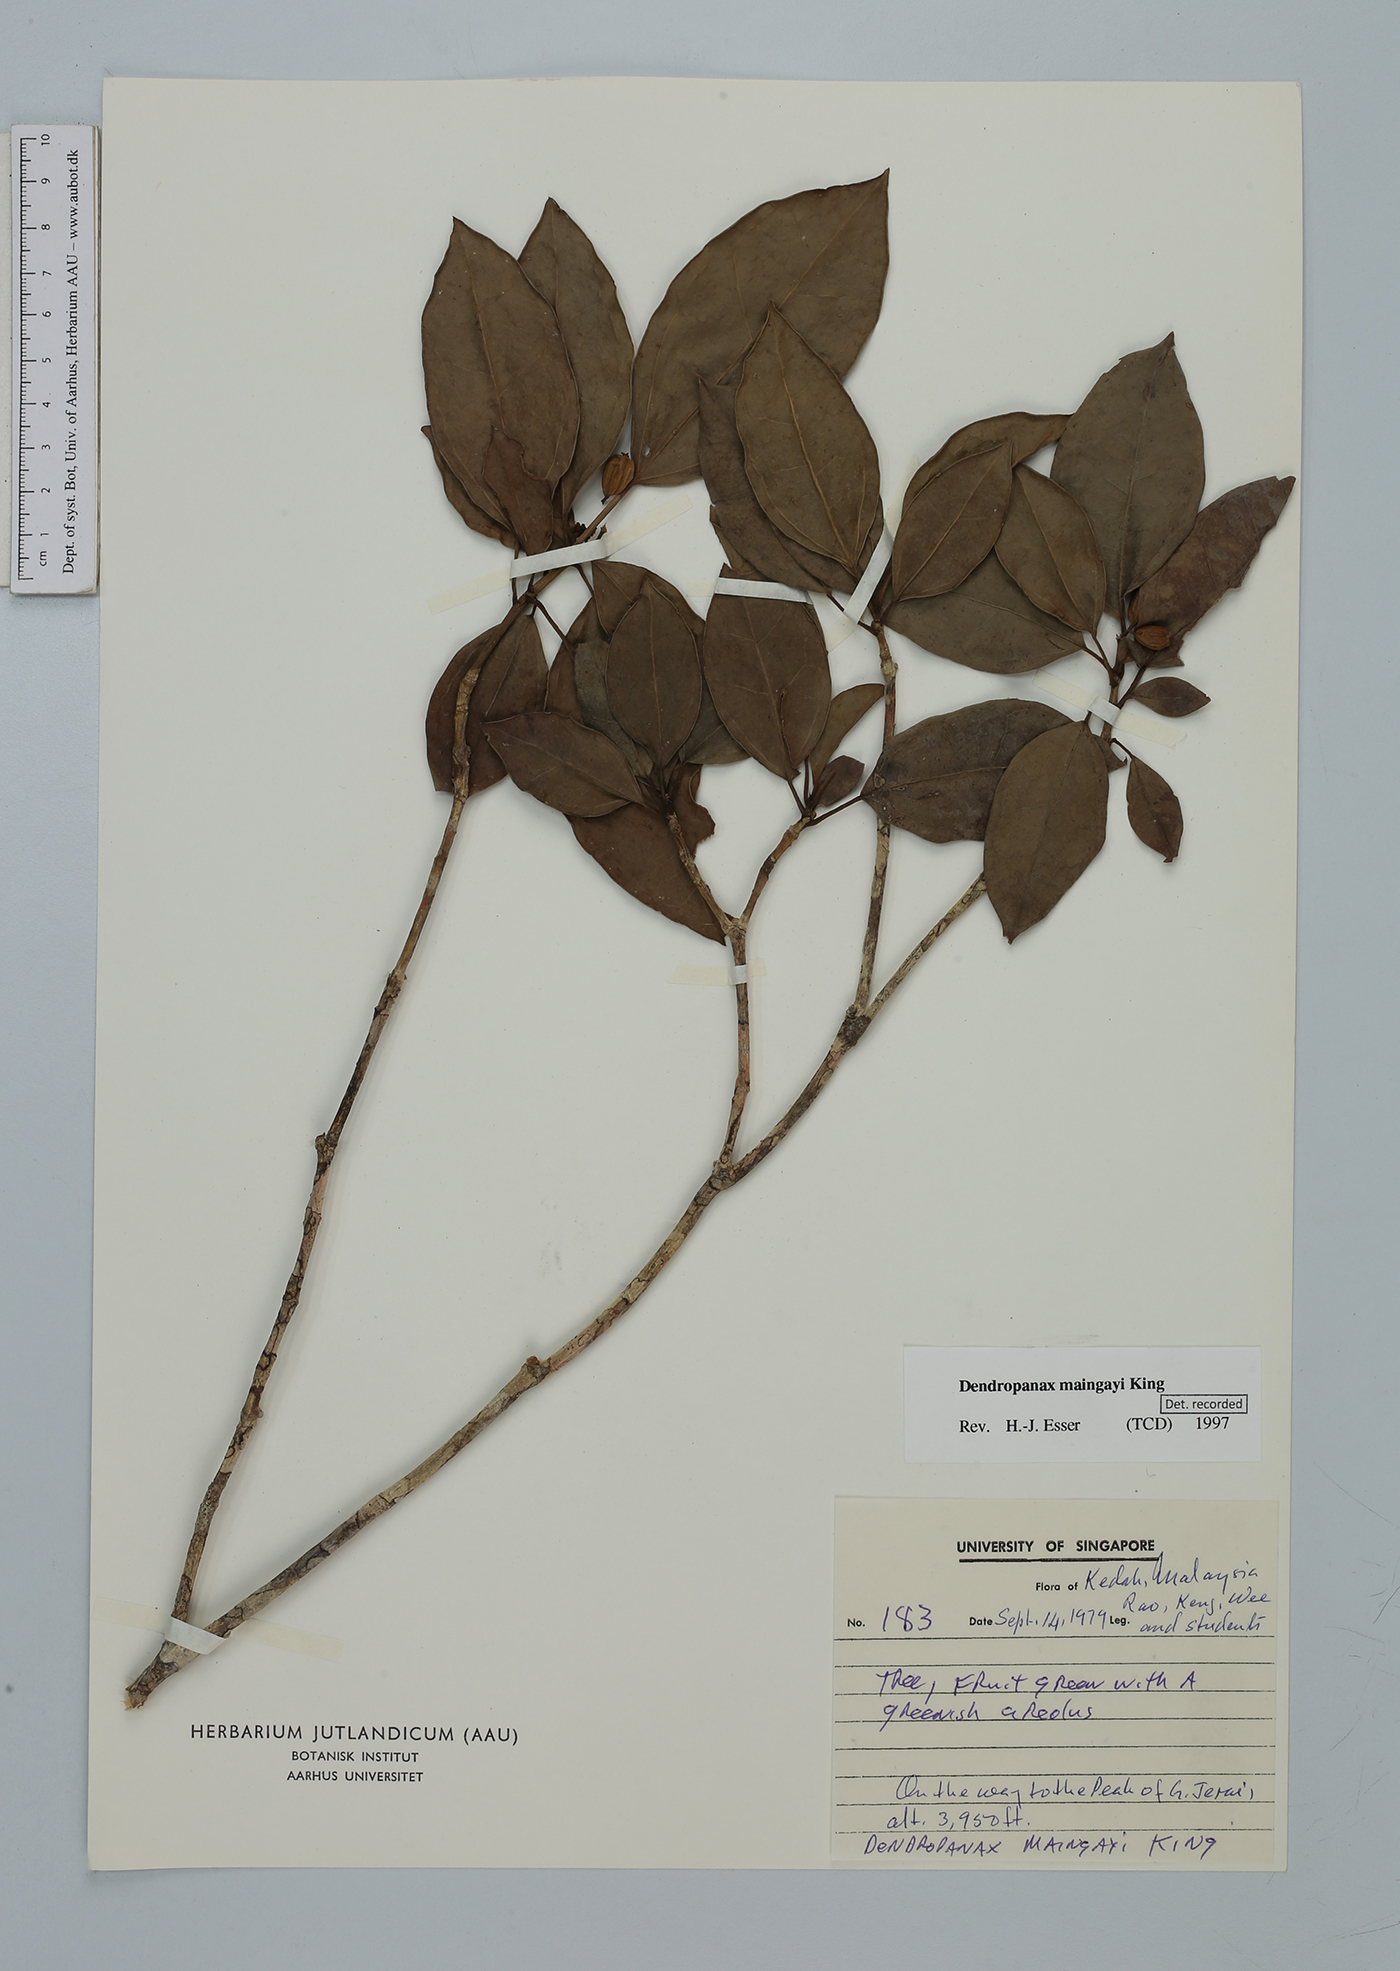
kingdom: Plantae
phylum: Tracheophyta
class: Magnoliopsida
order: Apiales
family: Araliaceae
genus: Dendropanax
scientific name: Dendropanax maingayi
